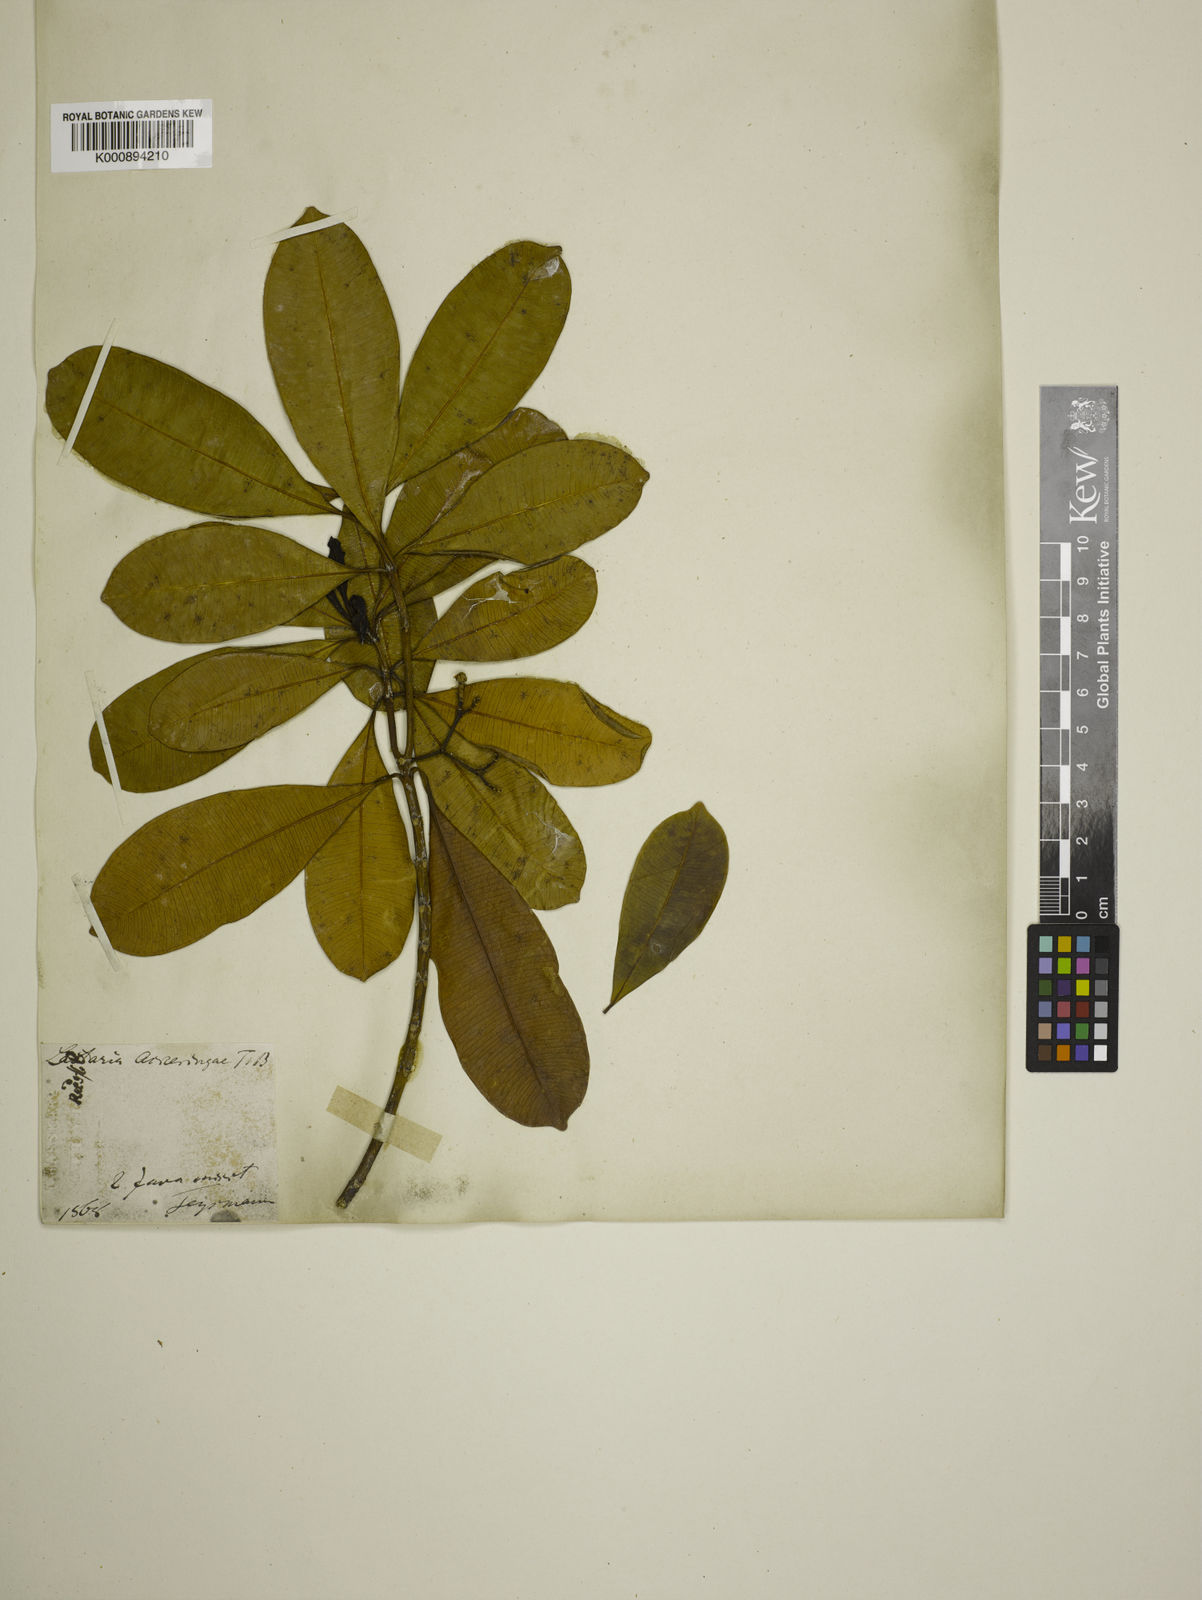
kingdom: Plantae
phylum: Tracheophyta
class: Magnoliopsida
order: Gentianales
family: Apocynaceae
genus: Ochrosia
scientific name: Ochrosia ackeringae
